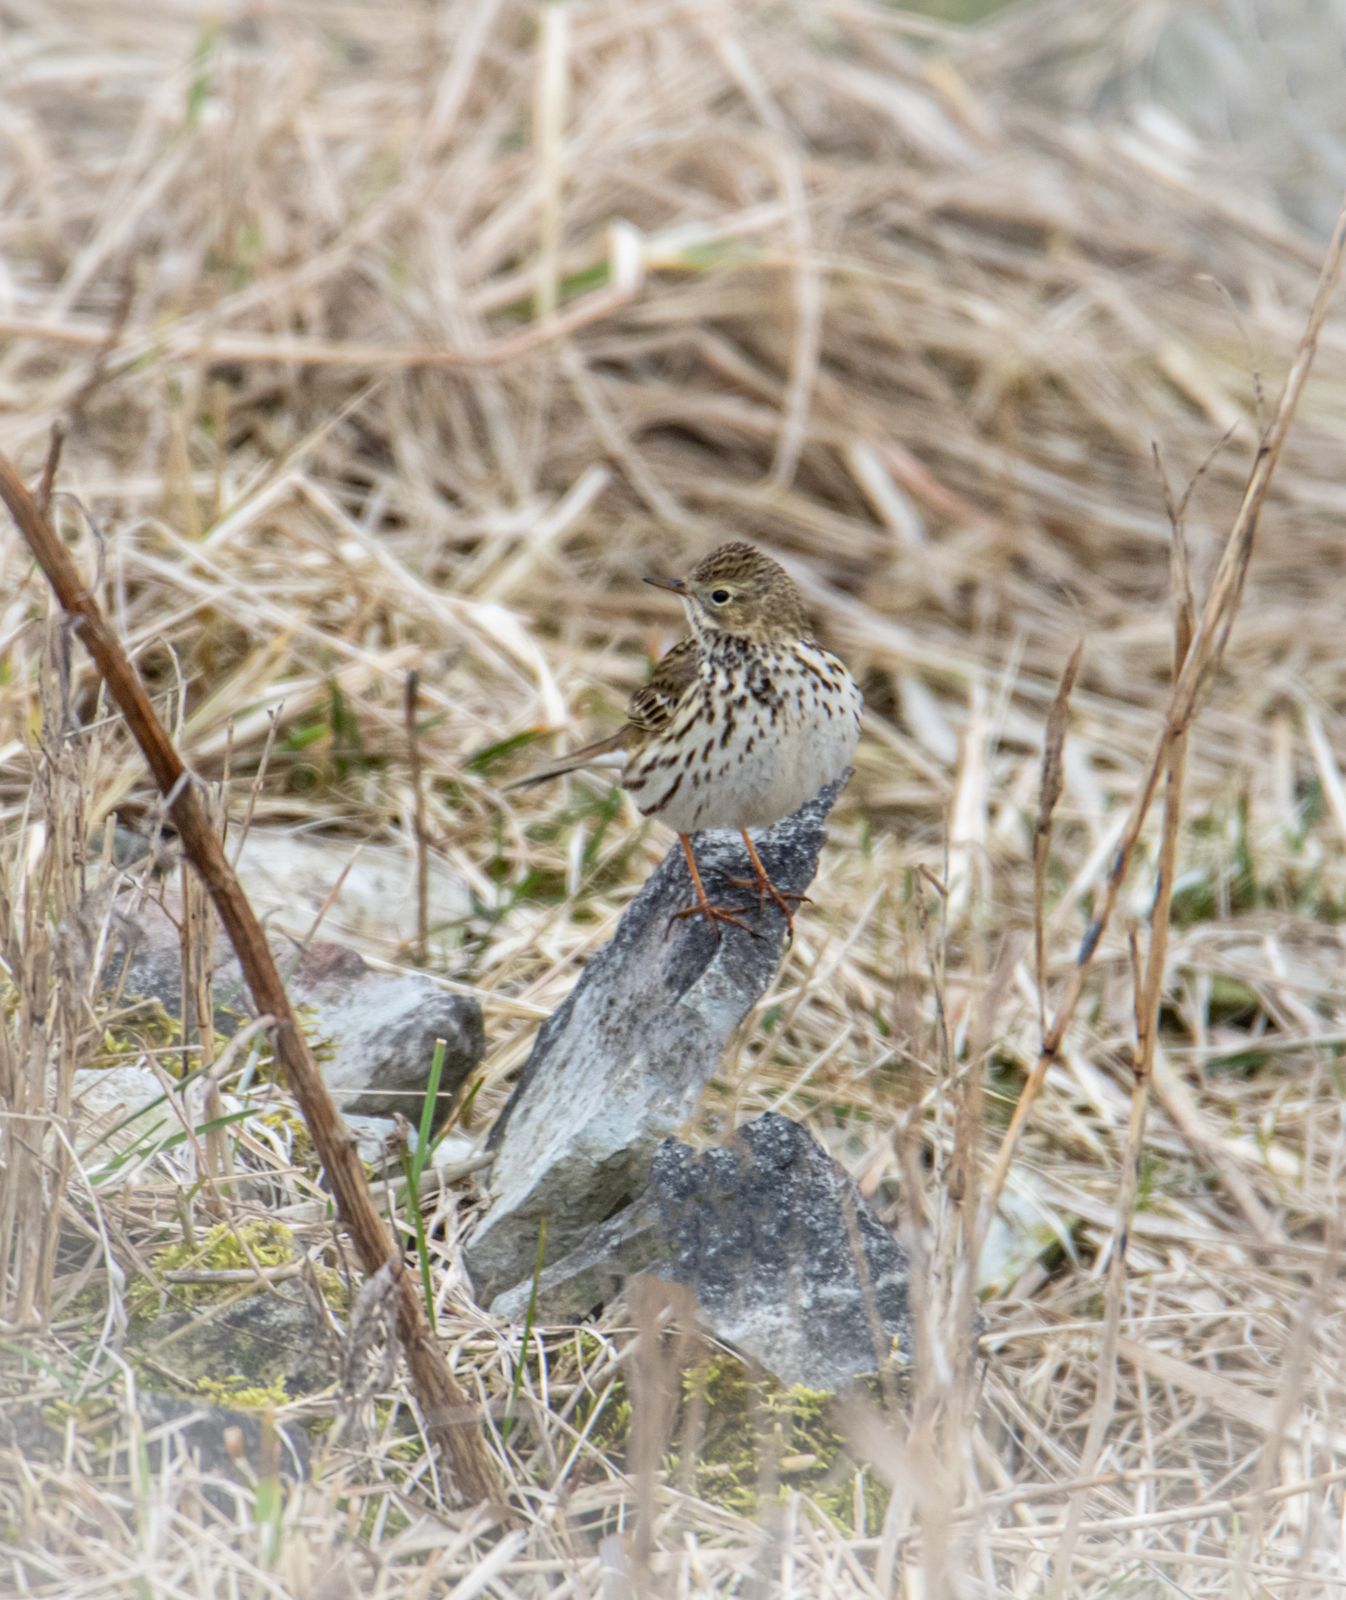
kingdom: Animalia
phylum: Chordata
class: Aves
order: Passeriformes
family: Motacillidae
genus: Anthus
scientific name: Anthus pratensis
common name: Meadow pipit
